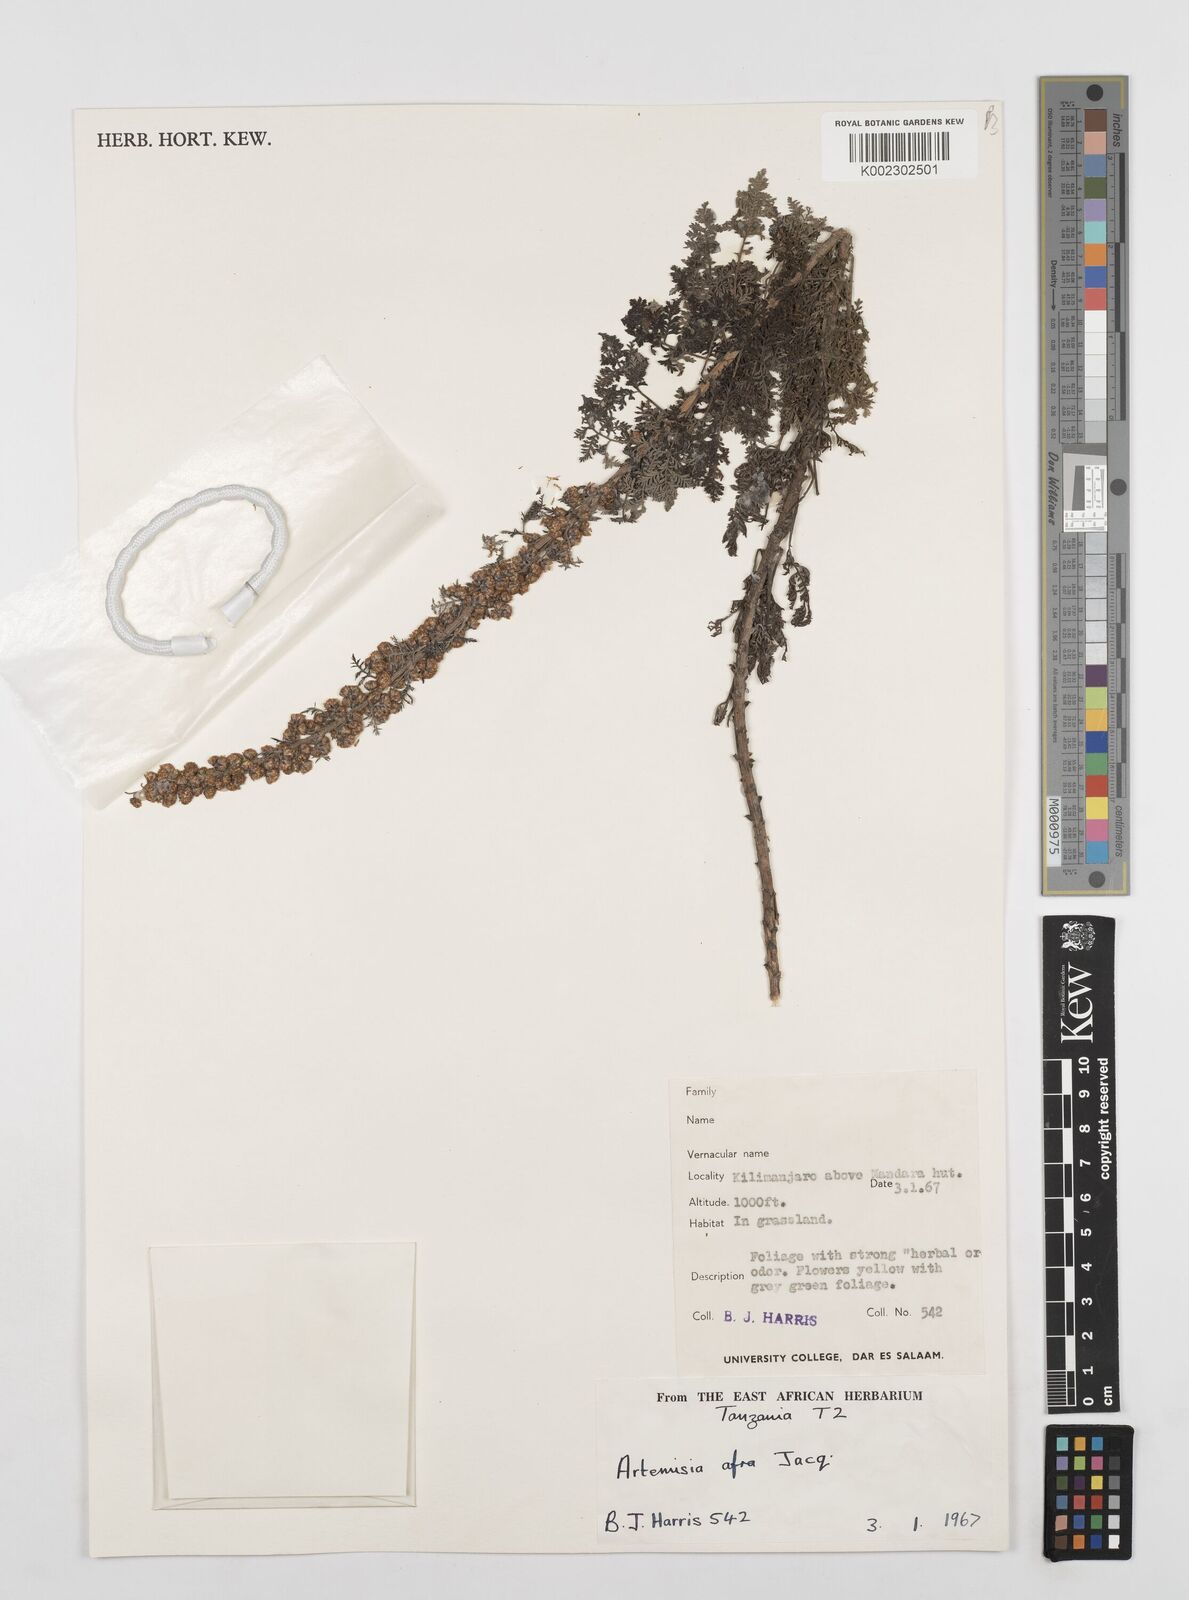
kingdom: Plantae
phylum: Tracheophyta
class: Magnoliopsida
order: Asterales
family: Asteraceae
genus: Artemisia
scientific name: Artemisia afra
